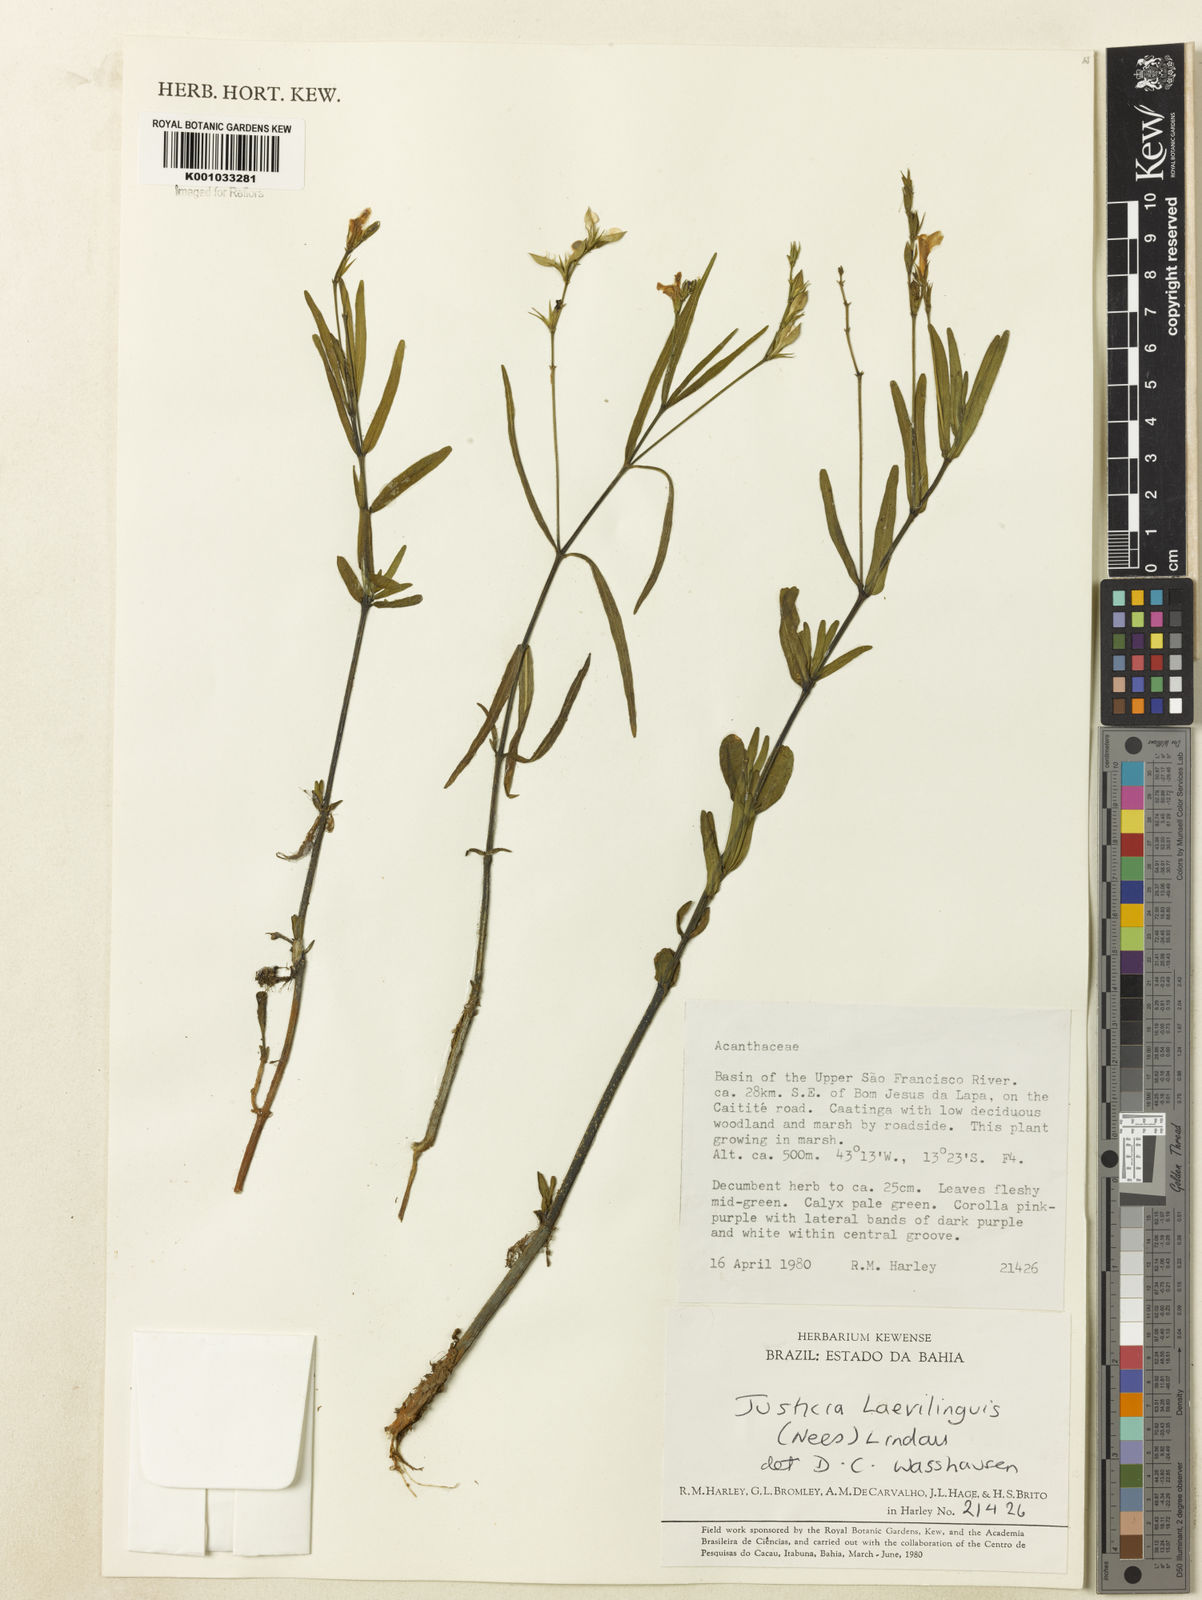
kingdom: Plantae
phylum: Tracheophyta
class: Magnoliopsida
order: Lamiales
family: Acanthaceae
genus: Dianthera
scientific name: Dianthera laevilinguis
